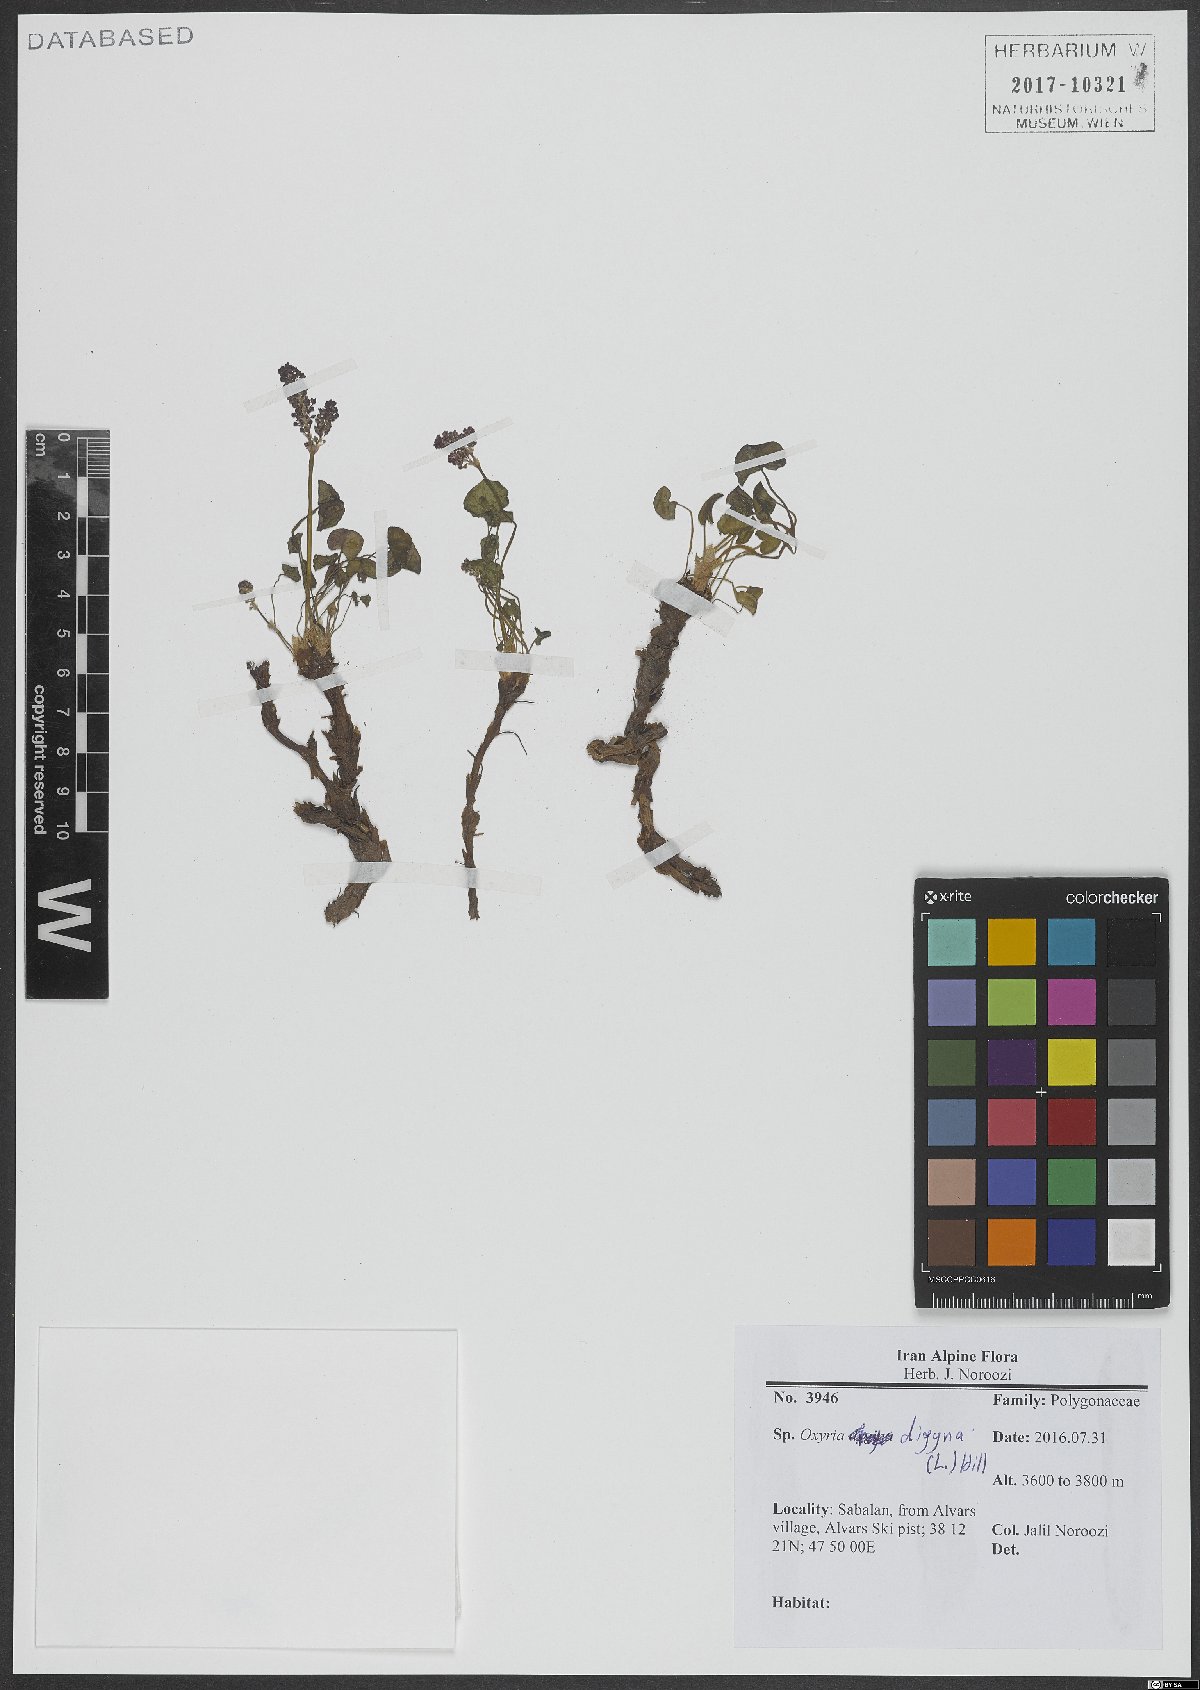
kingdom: Plantae
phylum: Tracheophyta
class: Magnoliopsida
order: Caryophyllales
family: Polygonaceae
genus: Oxyria
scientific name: Oxyria digyna
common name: Alpine mountain-sorrel
